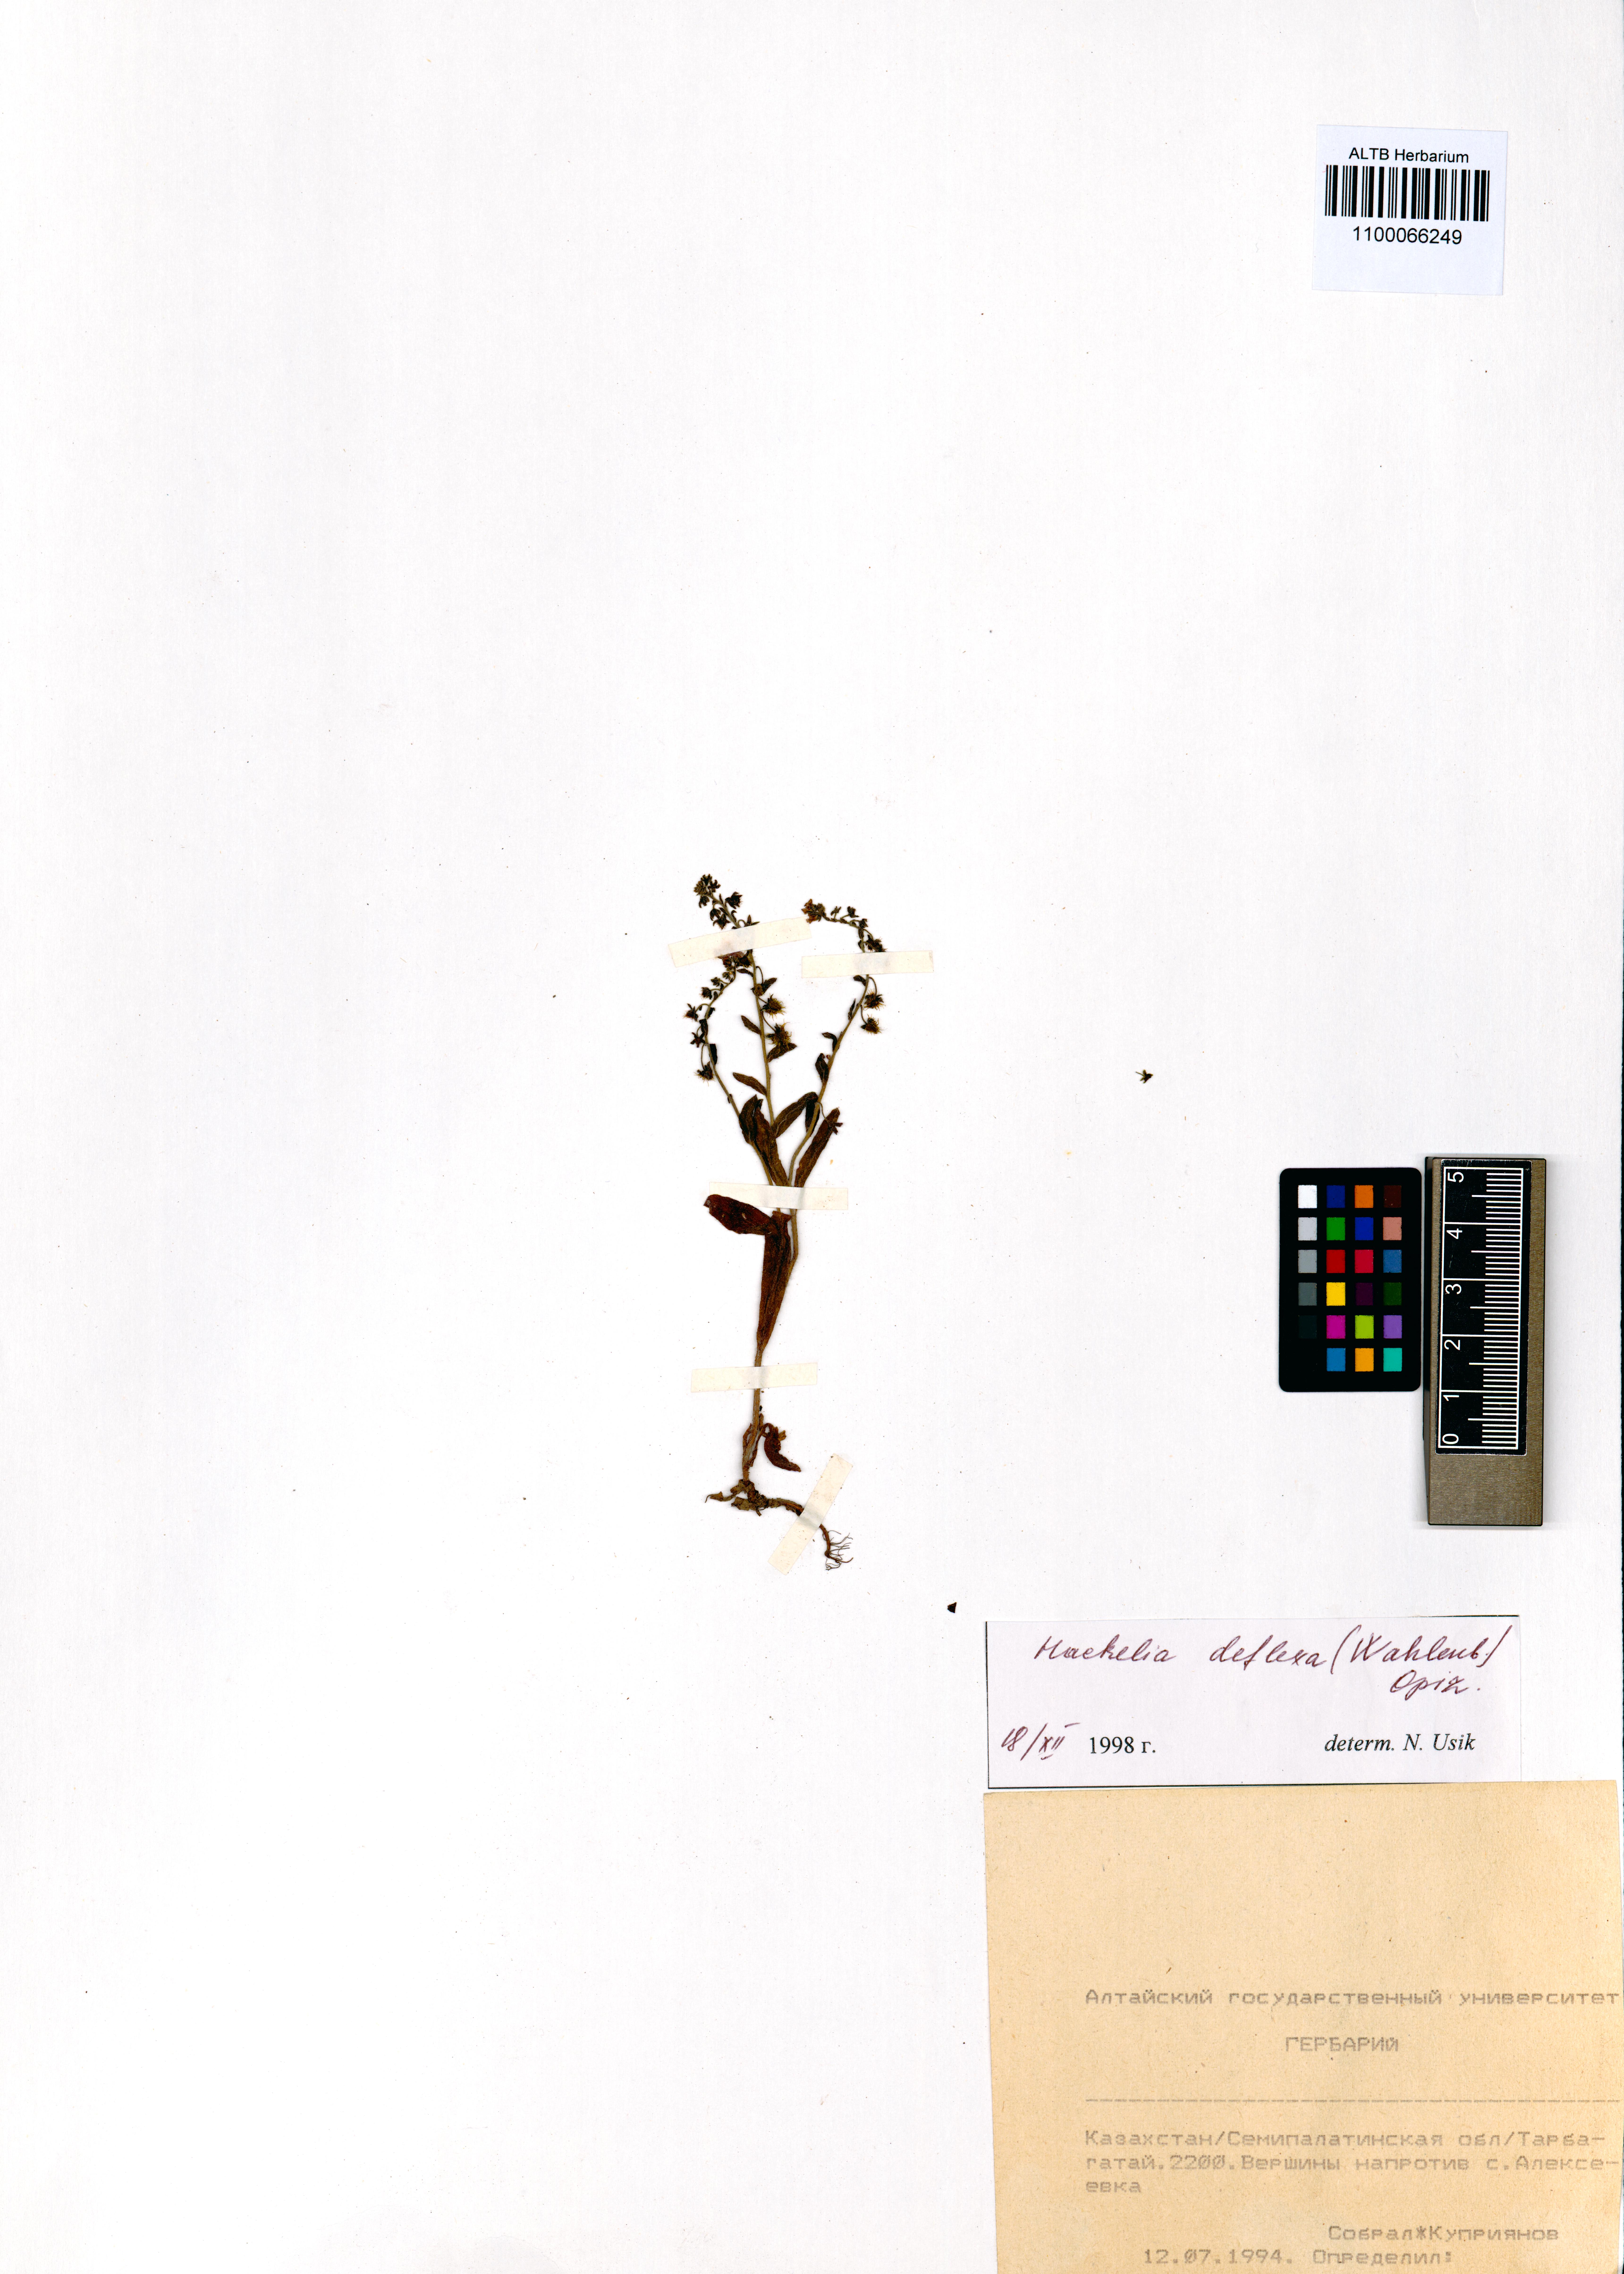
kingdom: Plantae
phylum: Tracheophyta
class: Magnoliopsida
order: Boraginales
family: Boraginaceae
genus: Hackelia
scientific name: Hackelia deflexa
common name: Nodding stickseed
